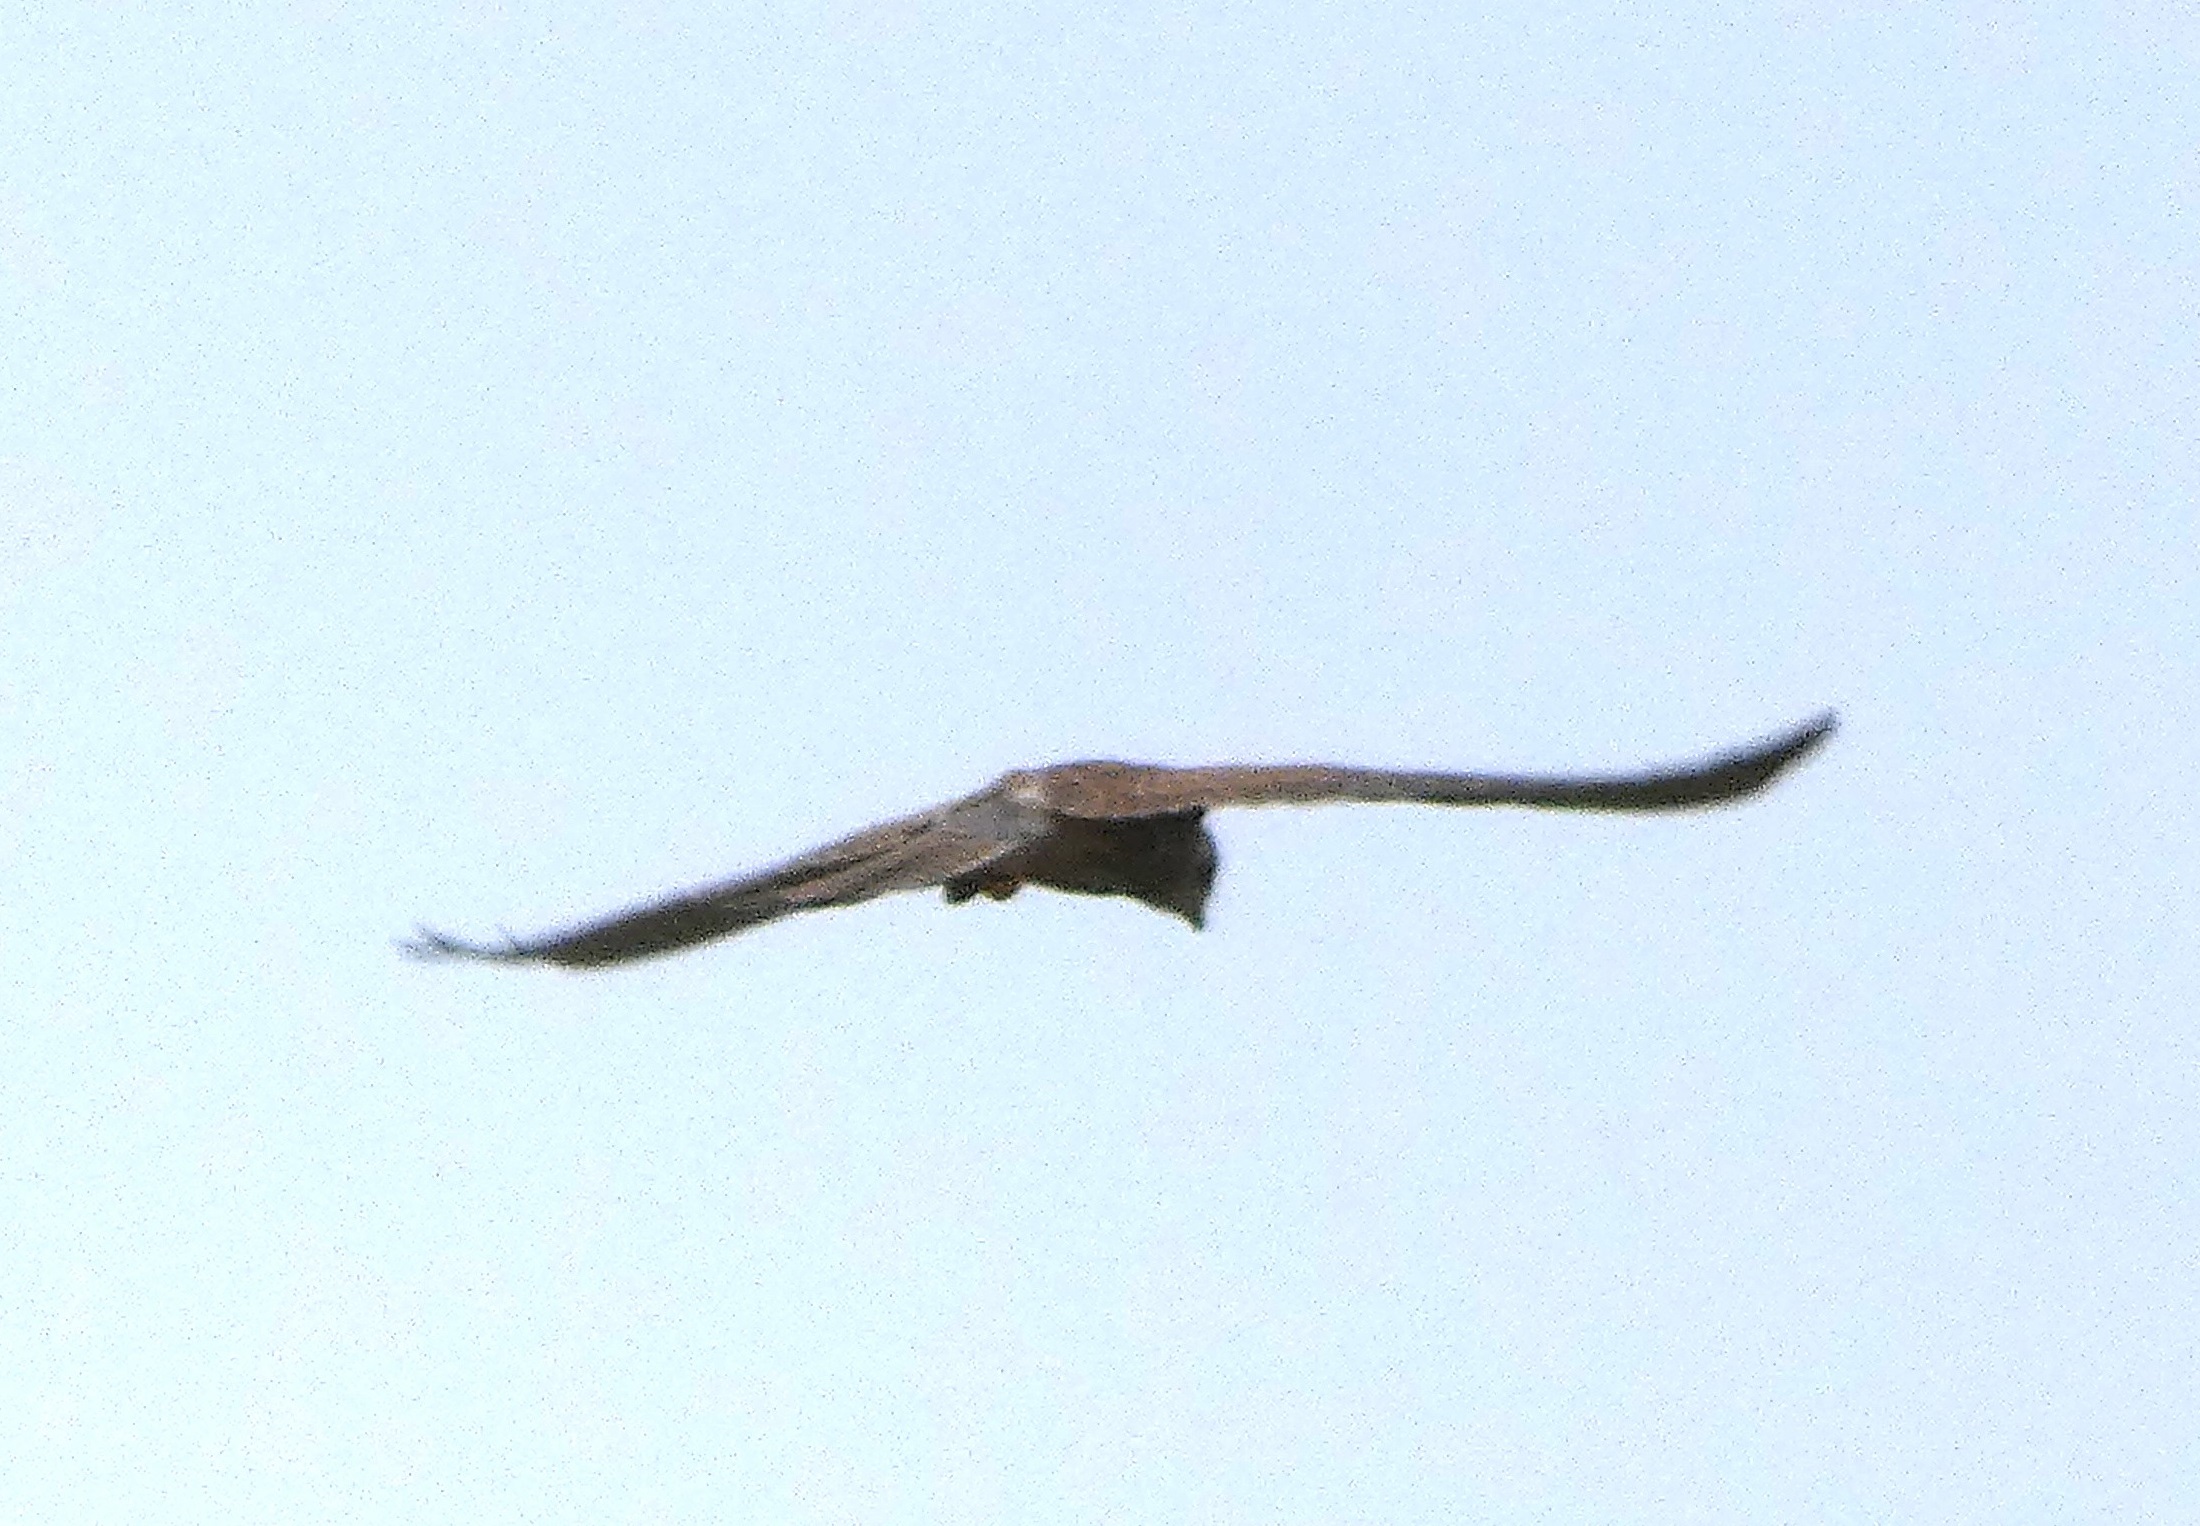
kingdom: Animalia
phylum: Chordata
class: Aves
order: Falconiformes
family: Falconidae
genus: Falco
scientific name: Falco tinnunculus
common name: Tårnfalk
